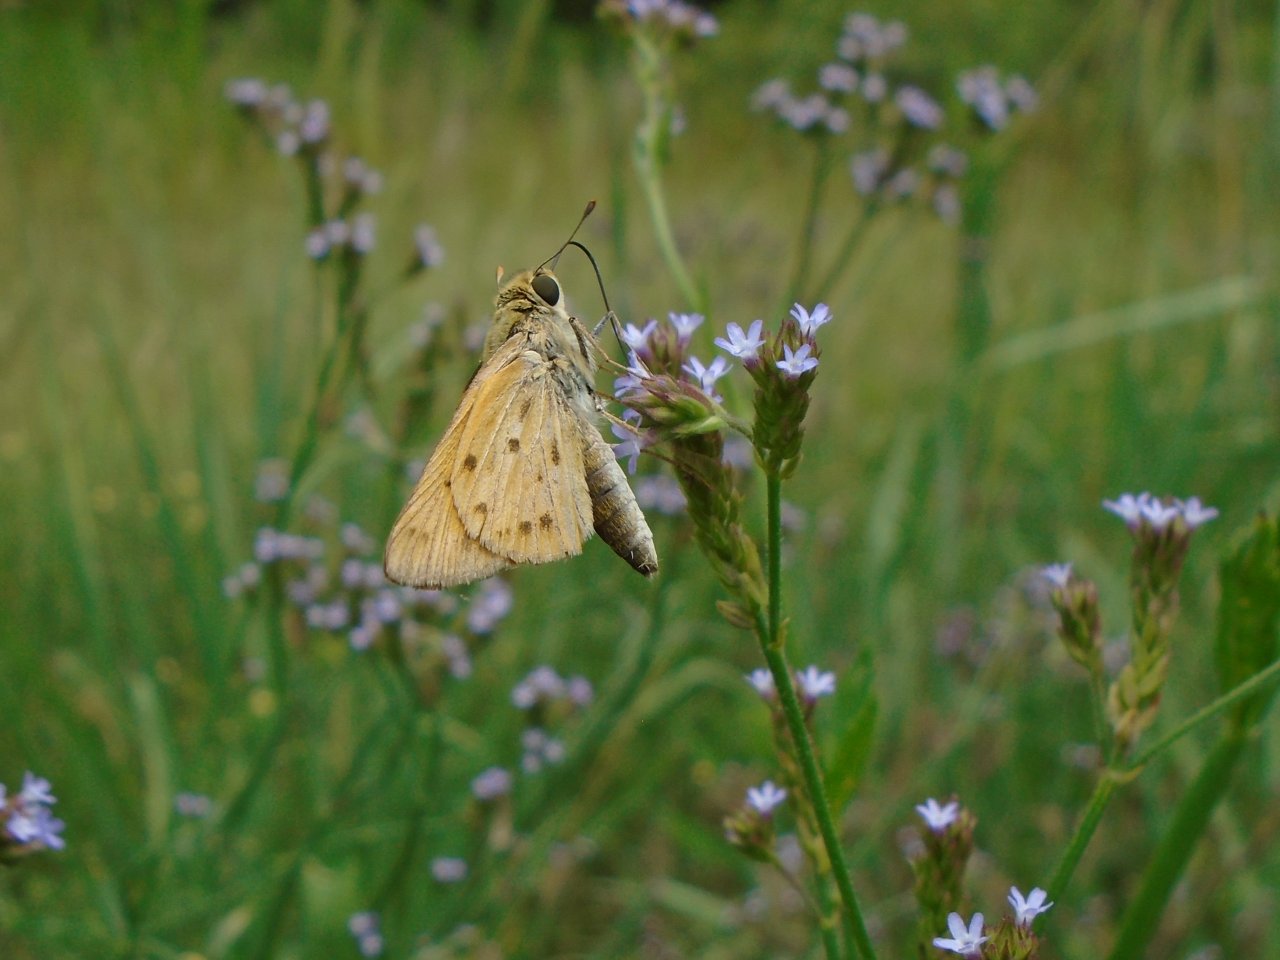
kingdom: Animalia
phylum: Arthropoda
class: Insecta
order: Lepidoptera
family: Hesperiidae
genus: Hylephila
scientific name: Hylephila phyleus
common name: Fiery Skipper
